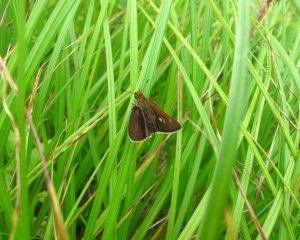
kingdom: Animalia
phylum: Arthropoda
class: Insecta
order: Lepidoptera
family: Hesperiidae
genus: Euphyes
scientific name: Euphyes bimacula
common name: Two-spotted Skipper
